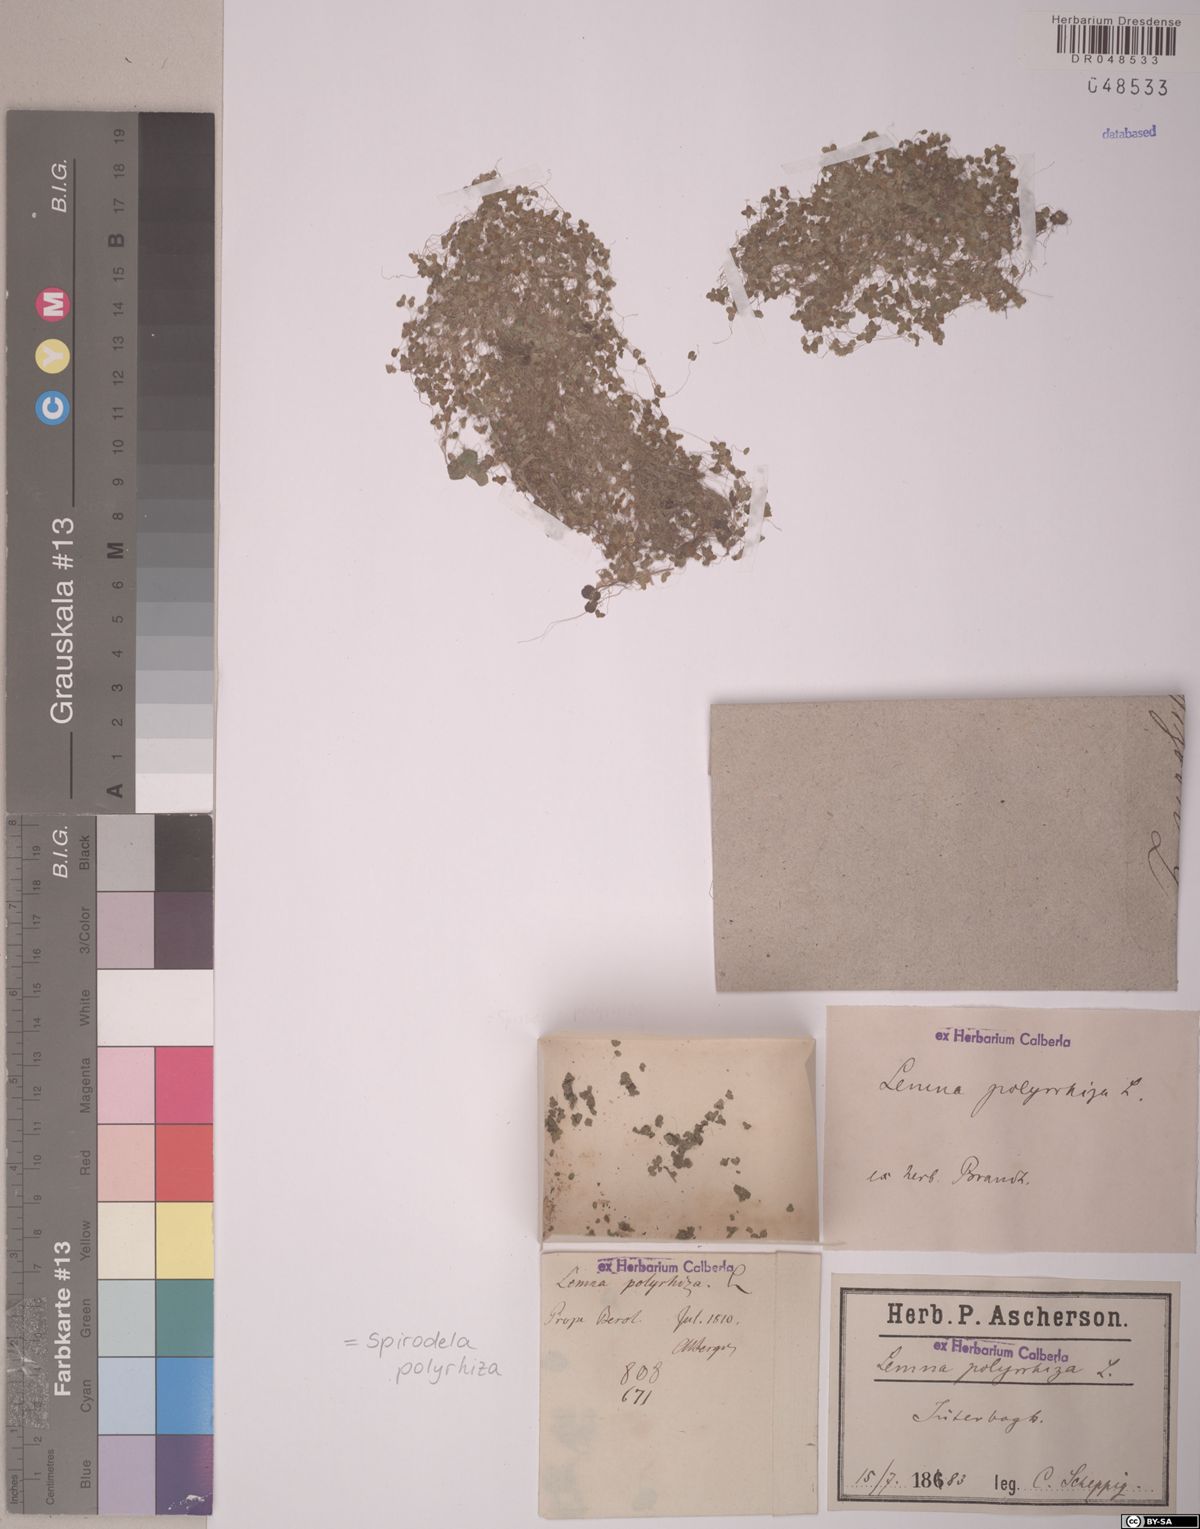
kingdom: Plantae
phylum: Tracheophyta
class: Liliopsida
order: Alismatales
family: Araceae
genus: Spirodela
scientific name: Spirodela polyrhiza
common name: Great duckweed
